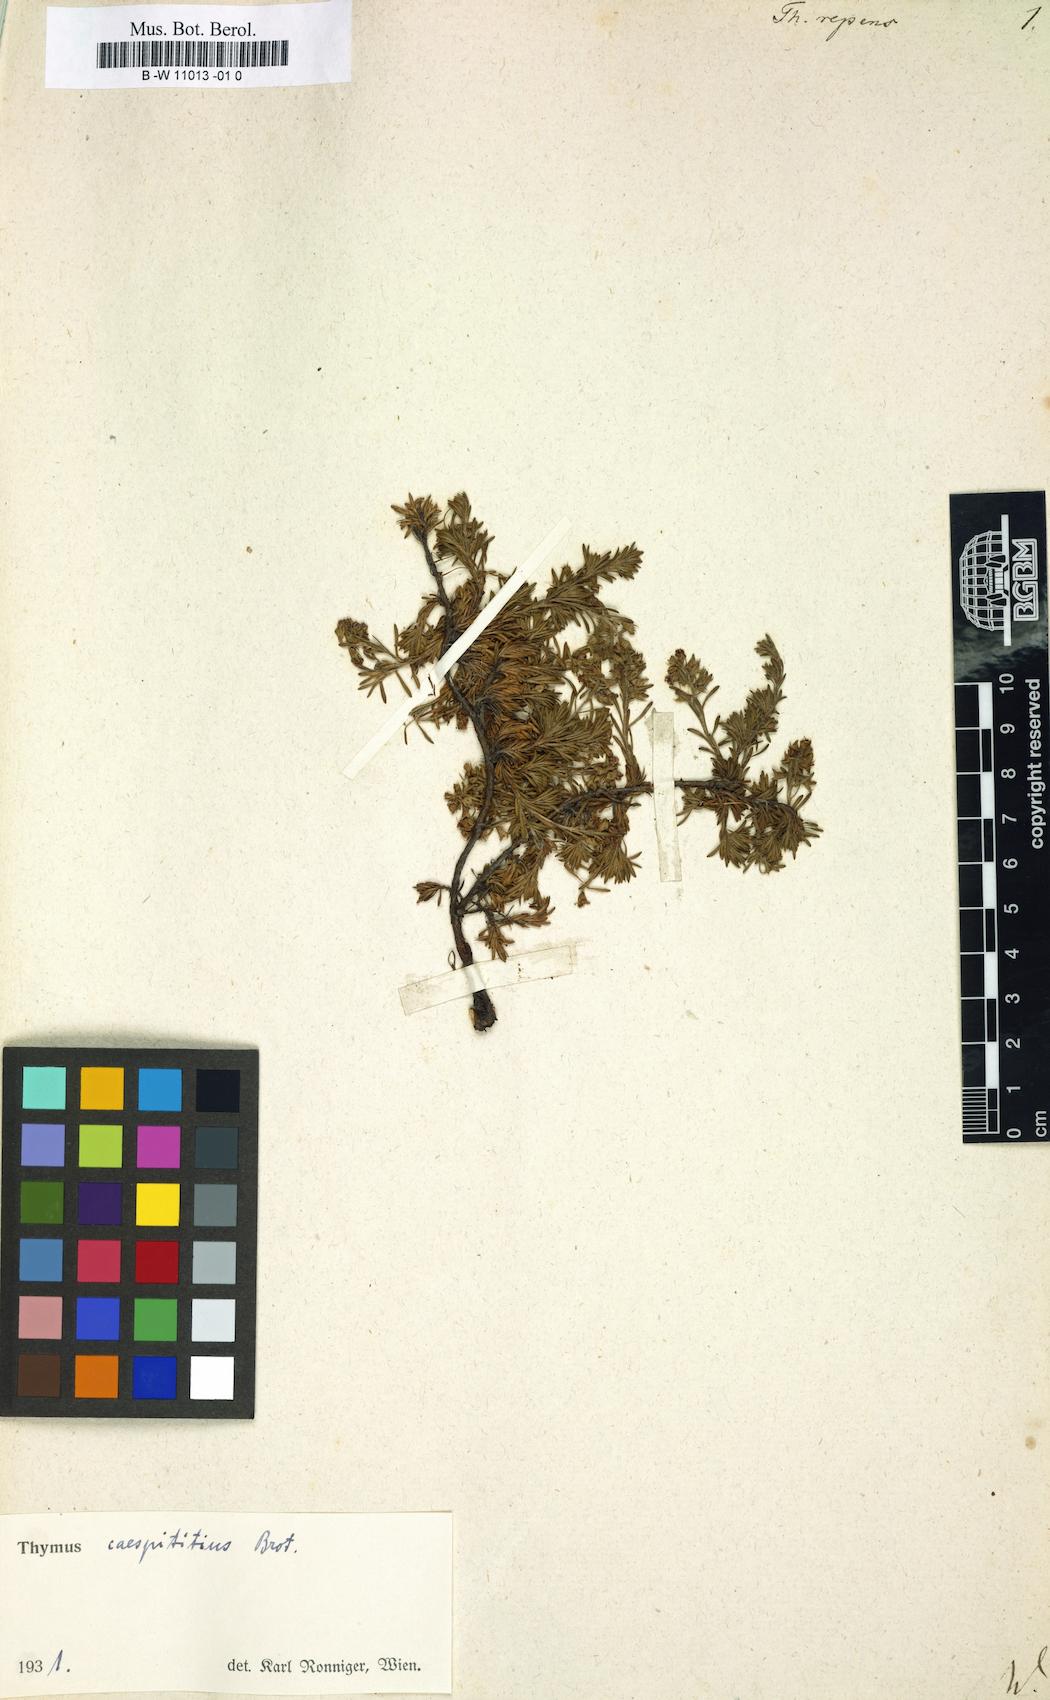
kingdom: Plantae
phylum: Tracheophyta
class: Magnoliopsida
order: Lamiales
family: Lamiaceae
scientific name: Lamiaceae
